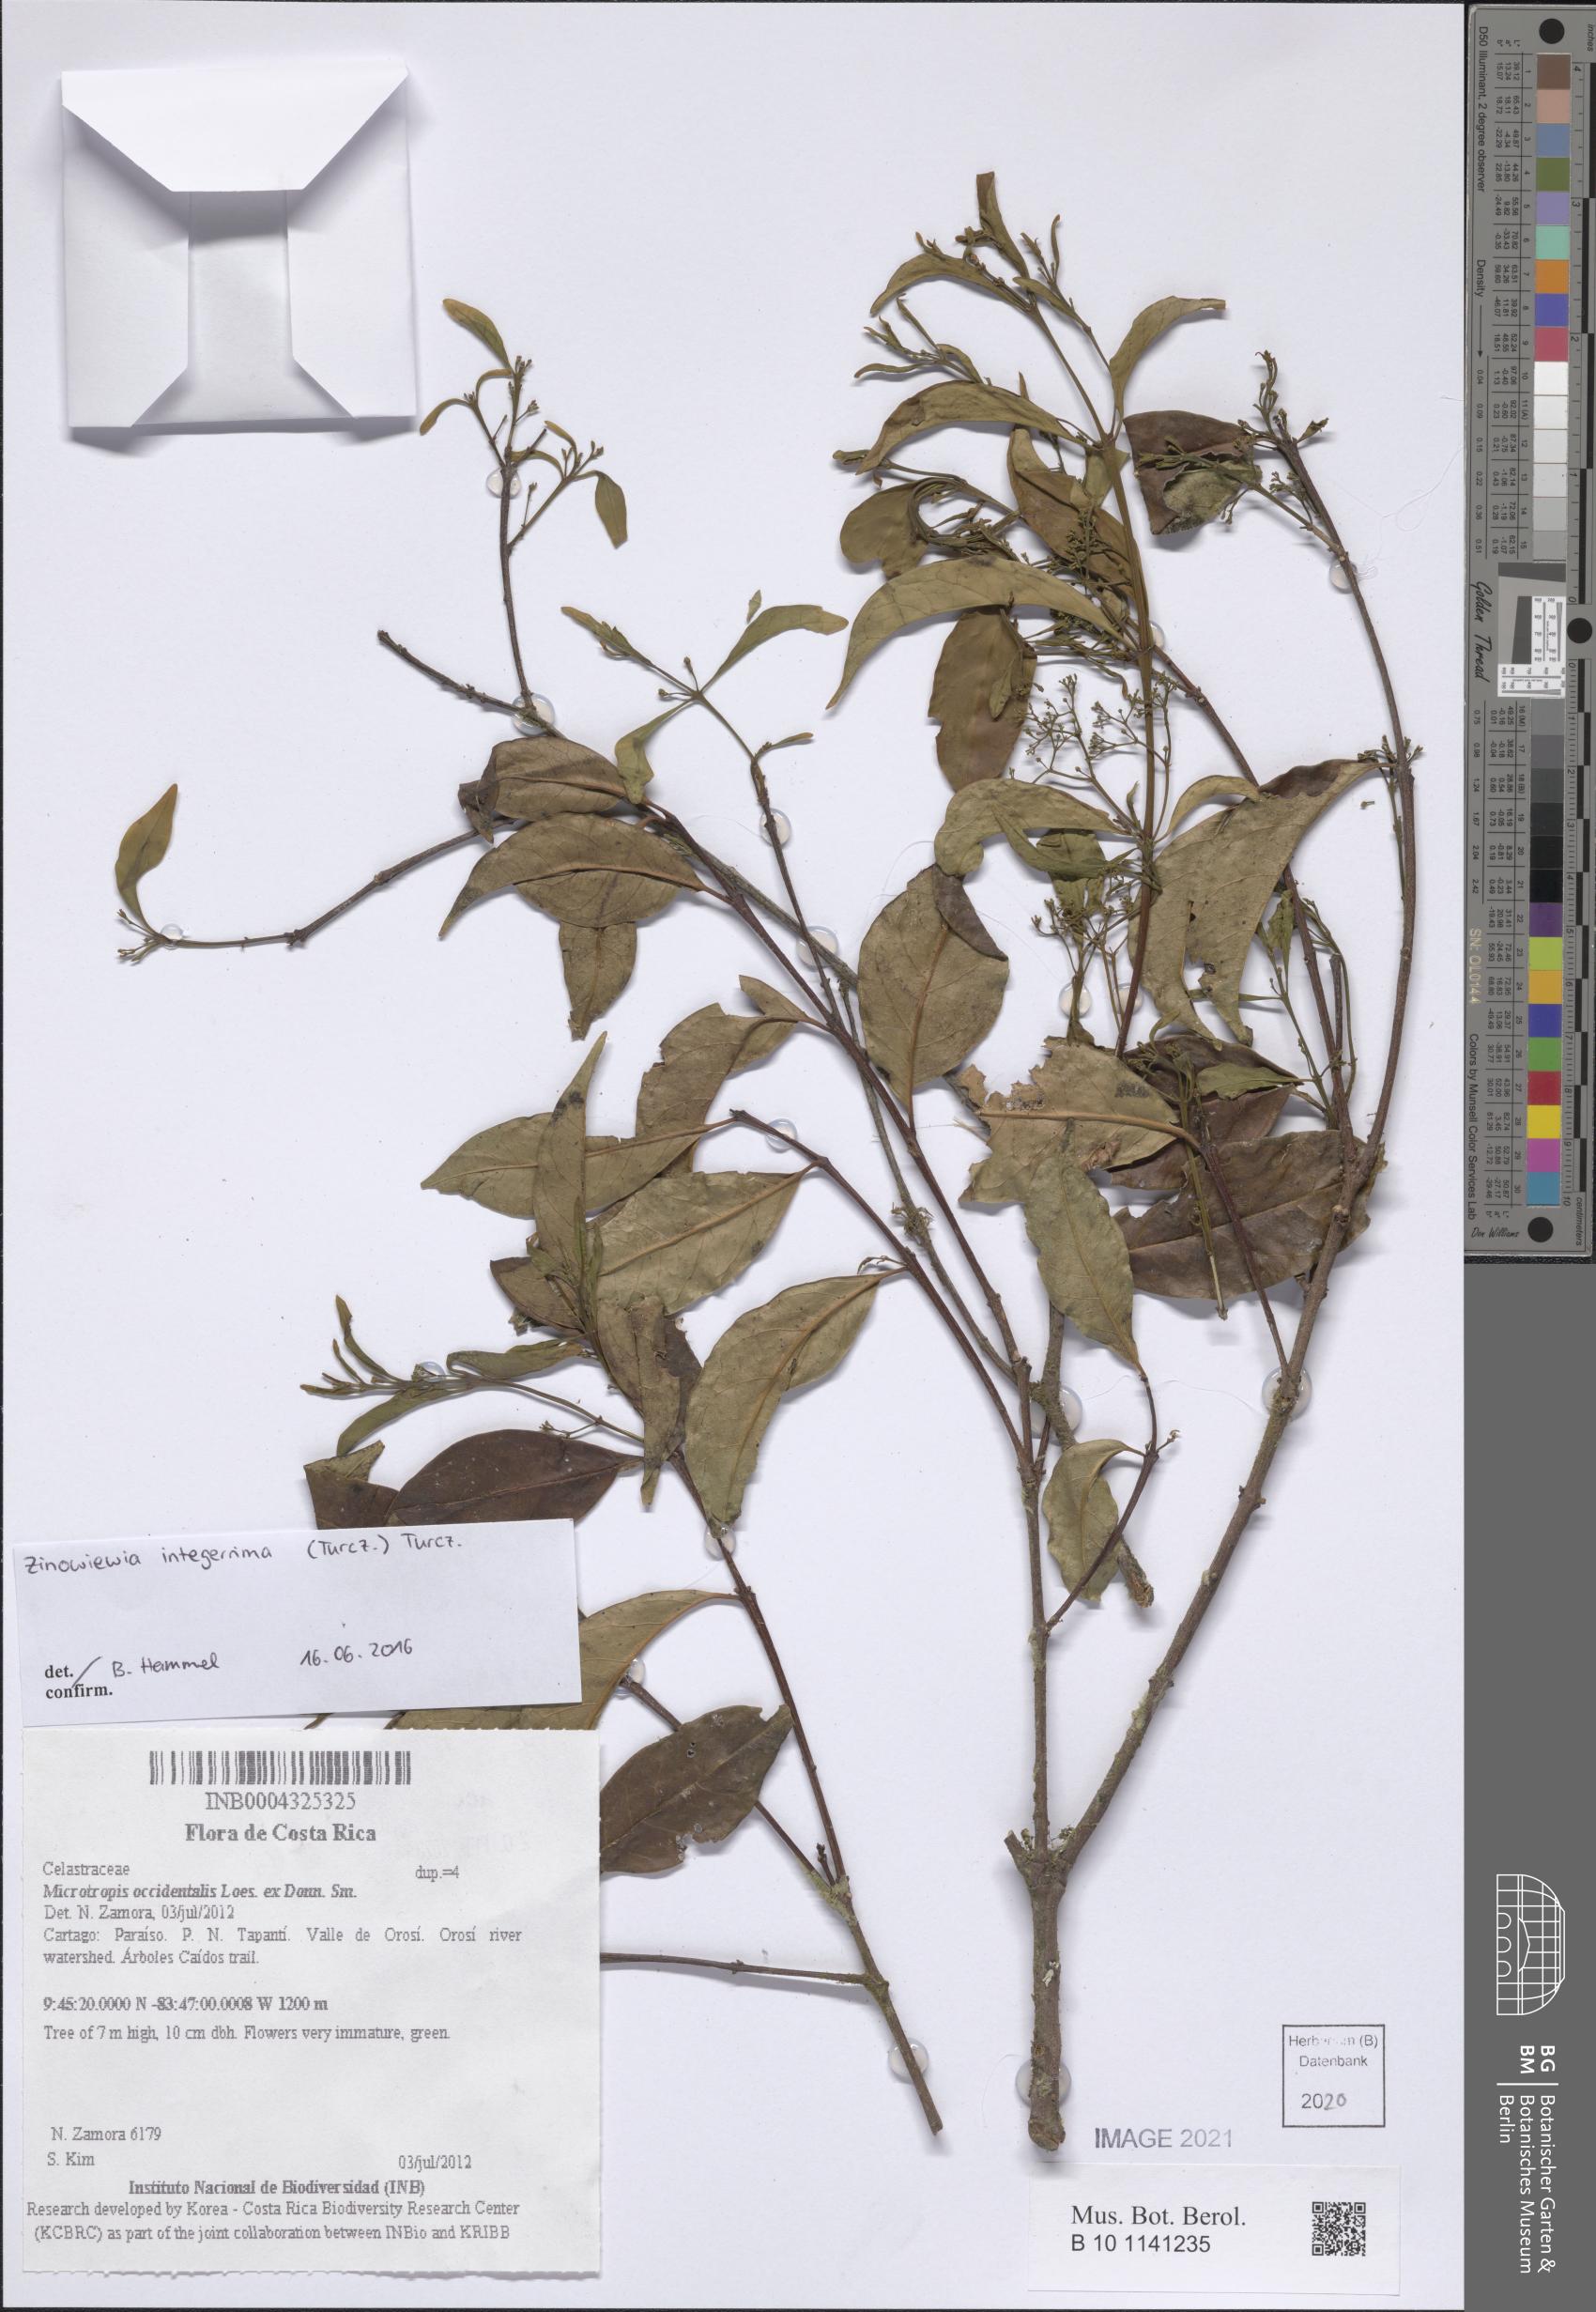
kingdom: Plantae
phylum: Tracheophyta
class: Magnoliopsida
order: Celastrales
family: Celastraceae
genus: Quetzalia
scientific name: Quetzalia occidentalis
